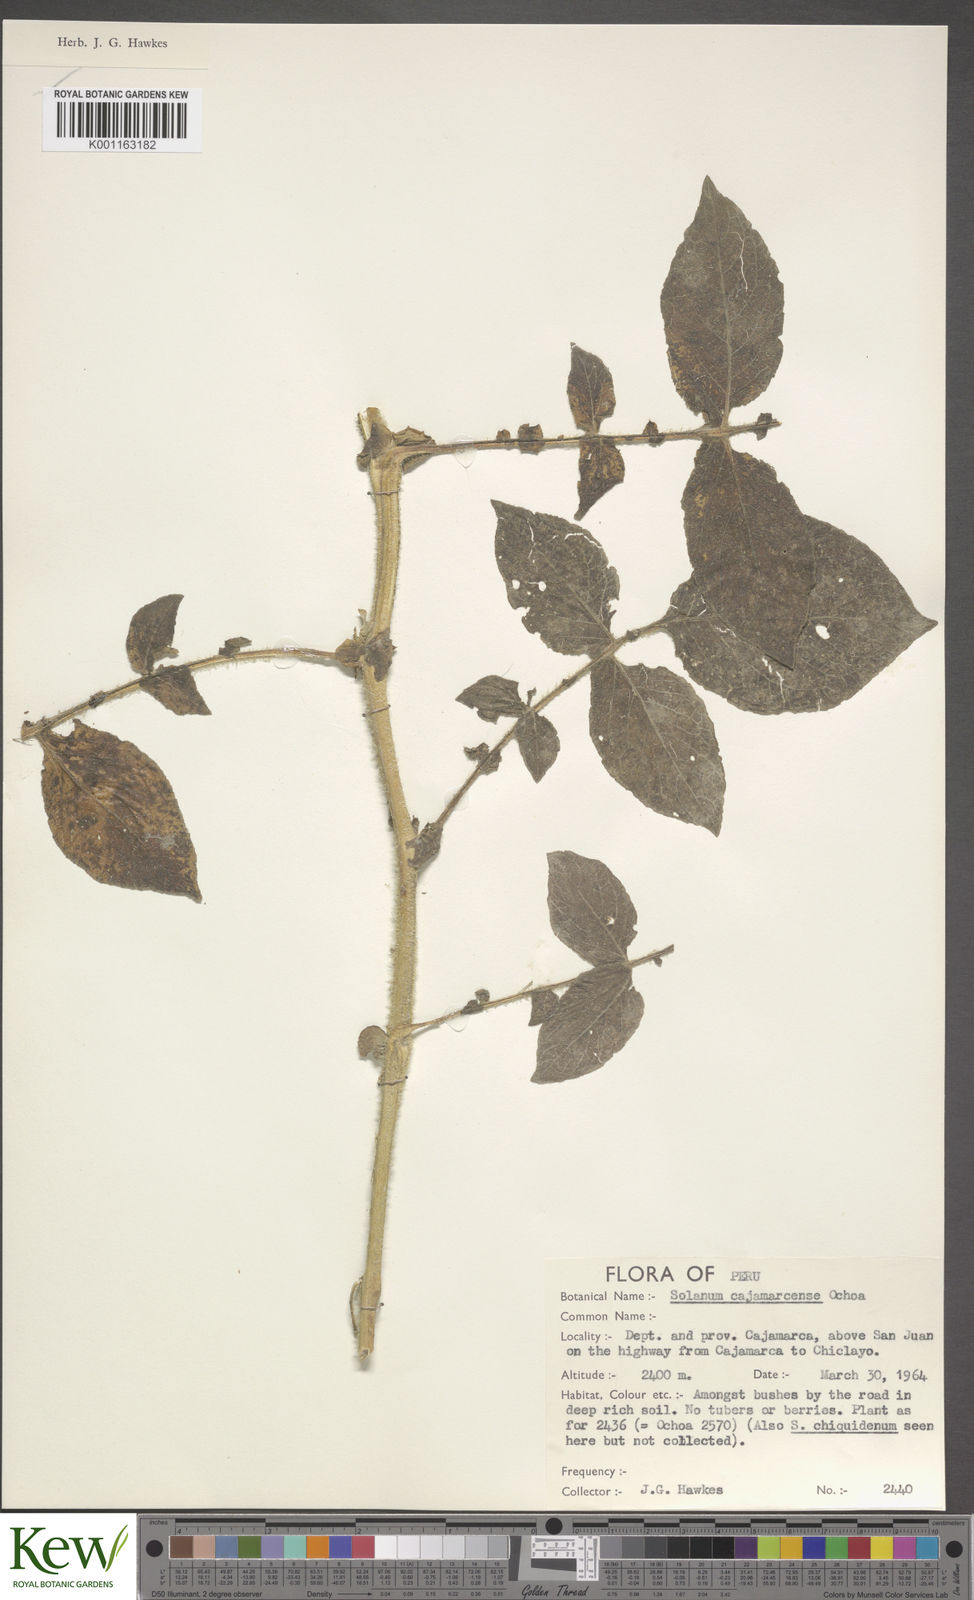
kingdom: Plantae
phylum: Tracheophyta
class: Magnoliopsida
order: Solanales
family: Solanaceae
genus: Solanum
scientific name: Solanum cajamarquense
